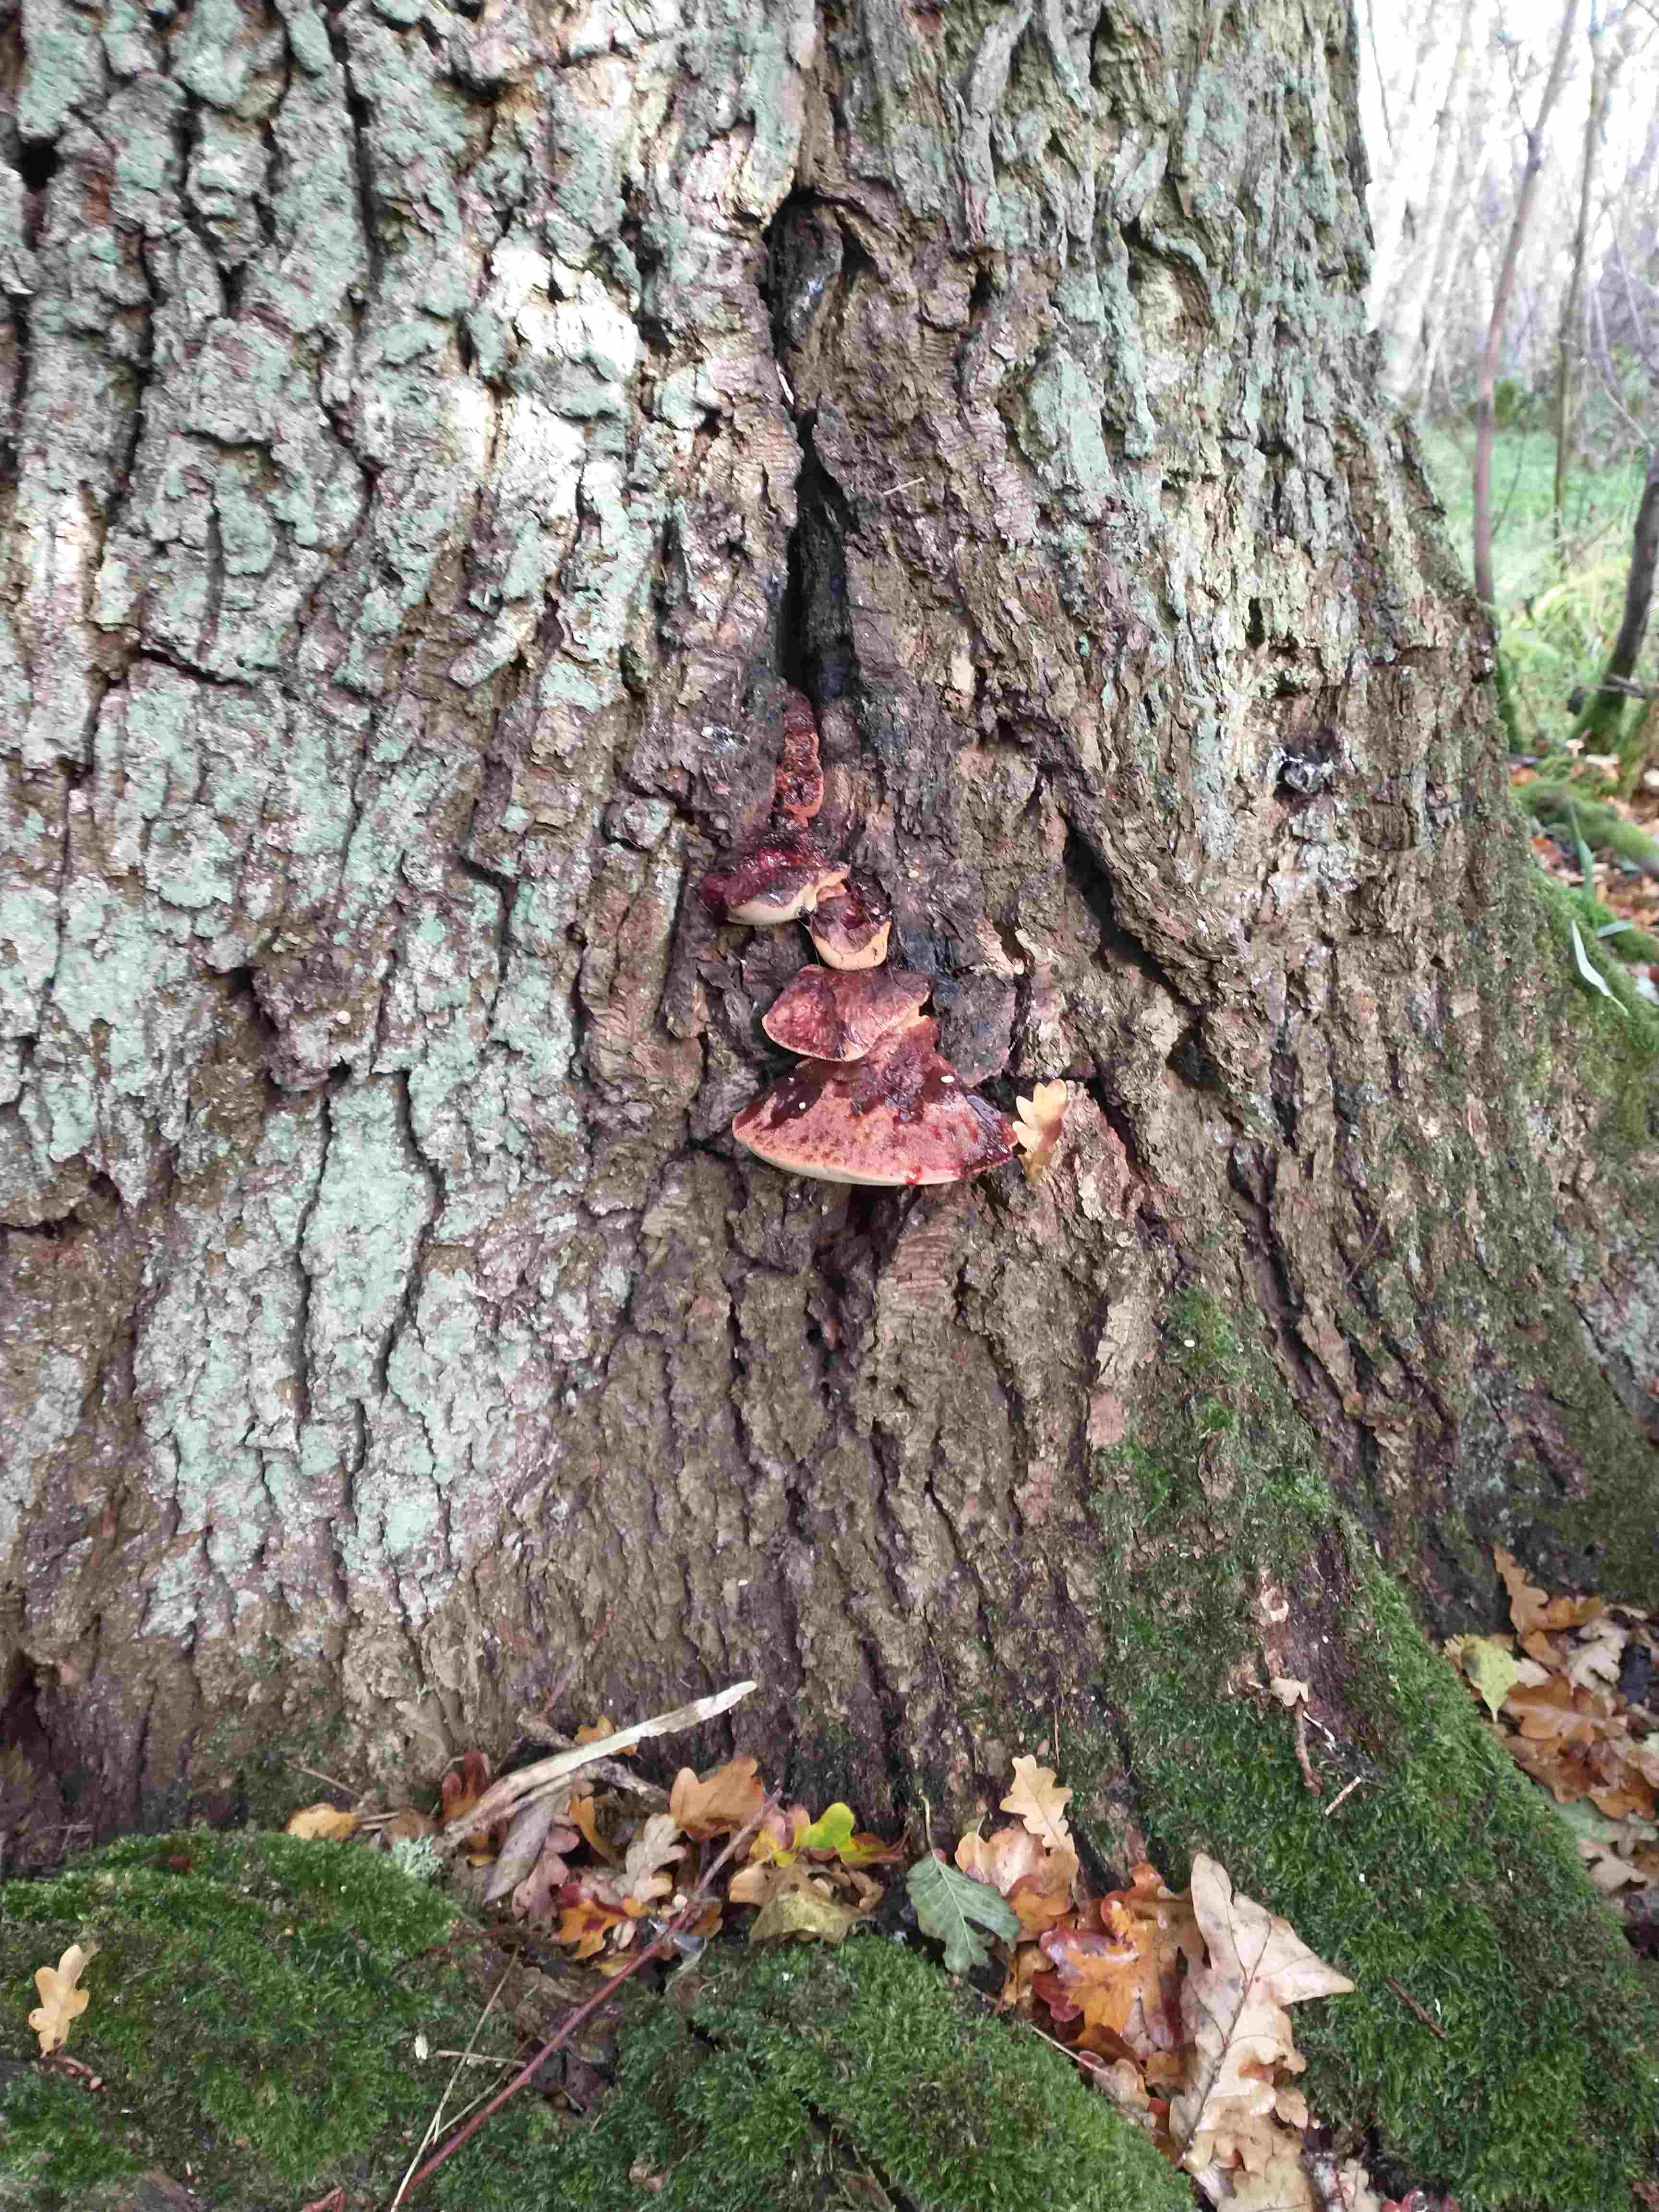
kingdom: Fungi
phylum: Basidiomycota
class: Agaricomycetes
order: Agaricales
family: Fistulinaceae
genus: Fistulina
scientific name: Fistulina hepatica
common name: oksetunge
